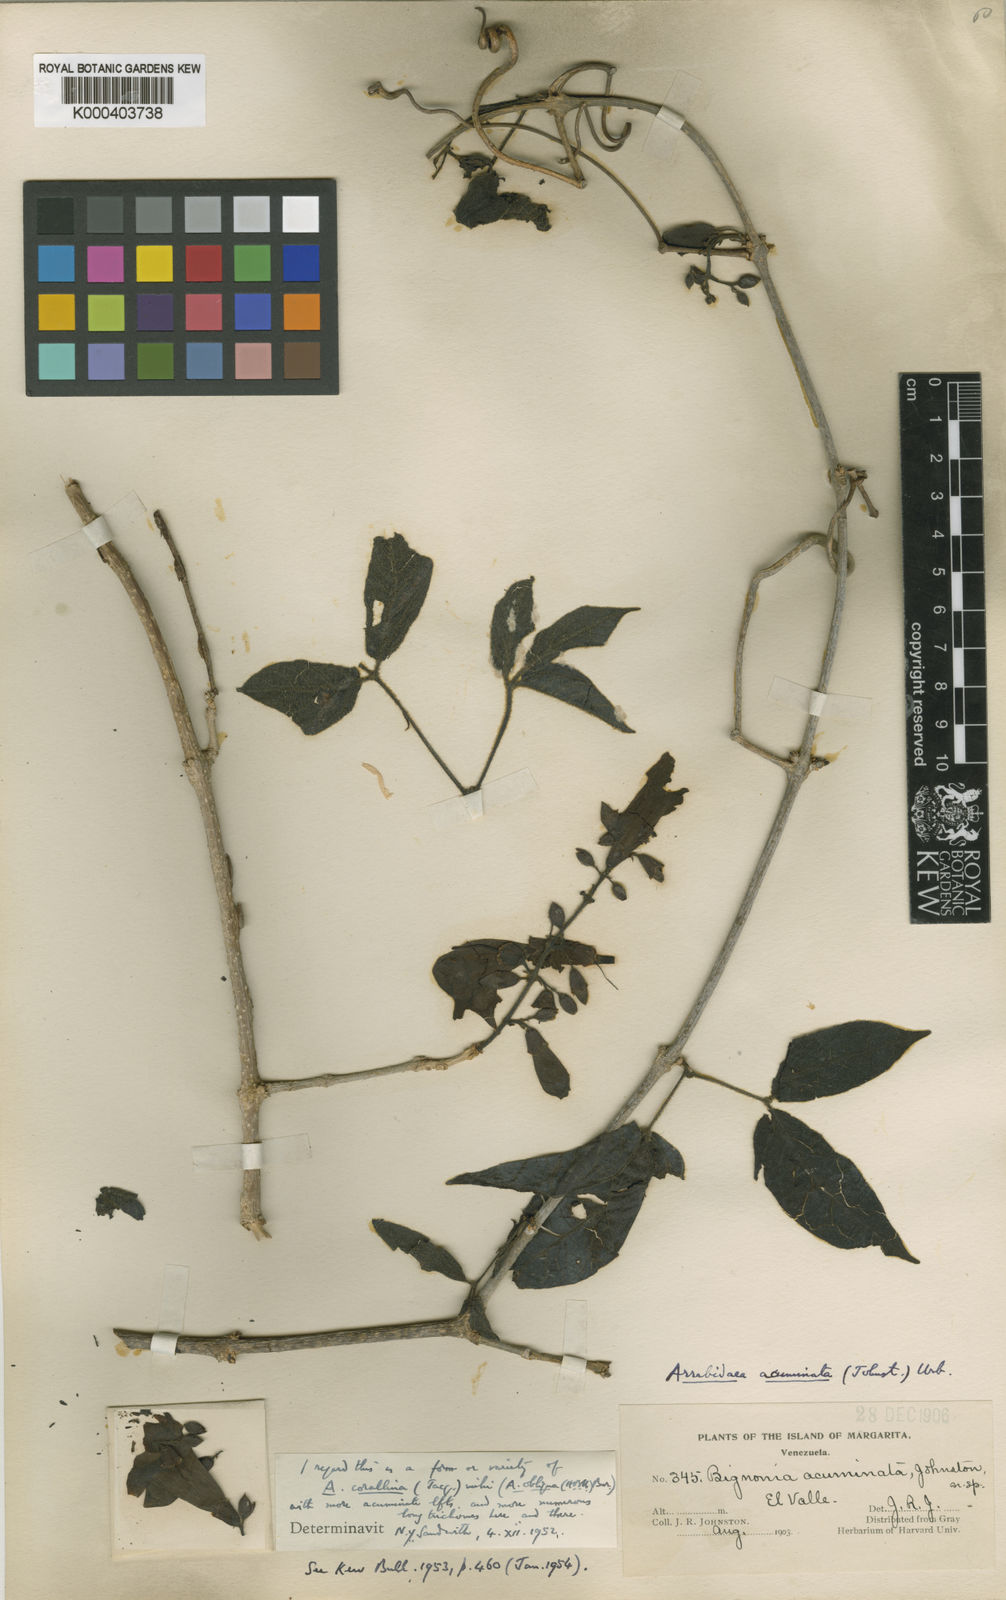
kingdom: Plantae
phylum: Tracheophyta
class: Magnoliopsida
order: Lamiales
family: Bignoniaceae
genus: Tanaecium
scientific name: Tanaecium
